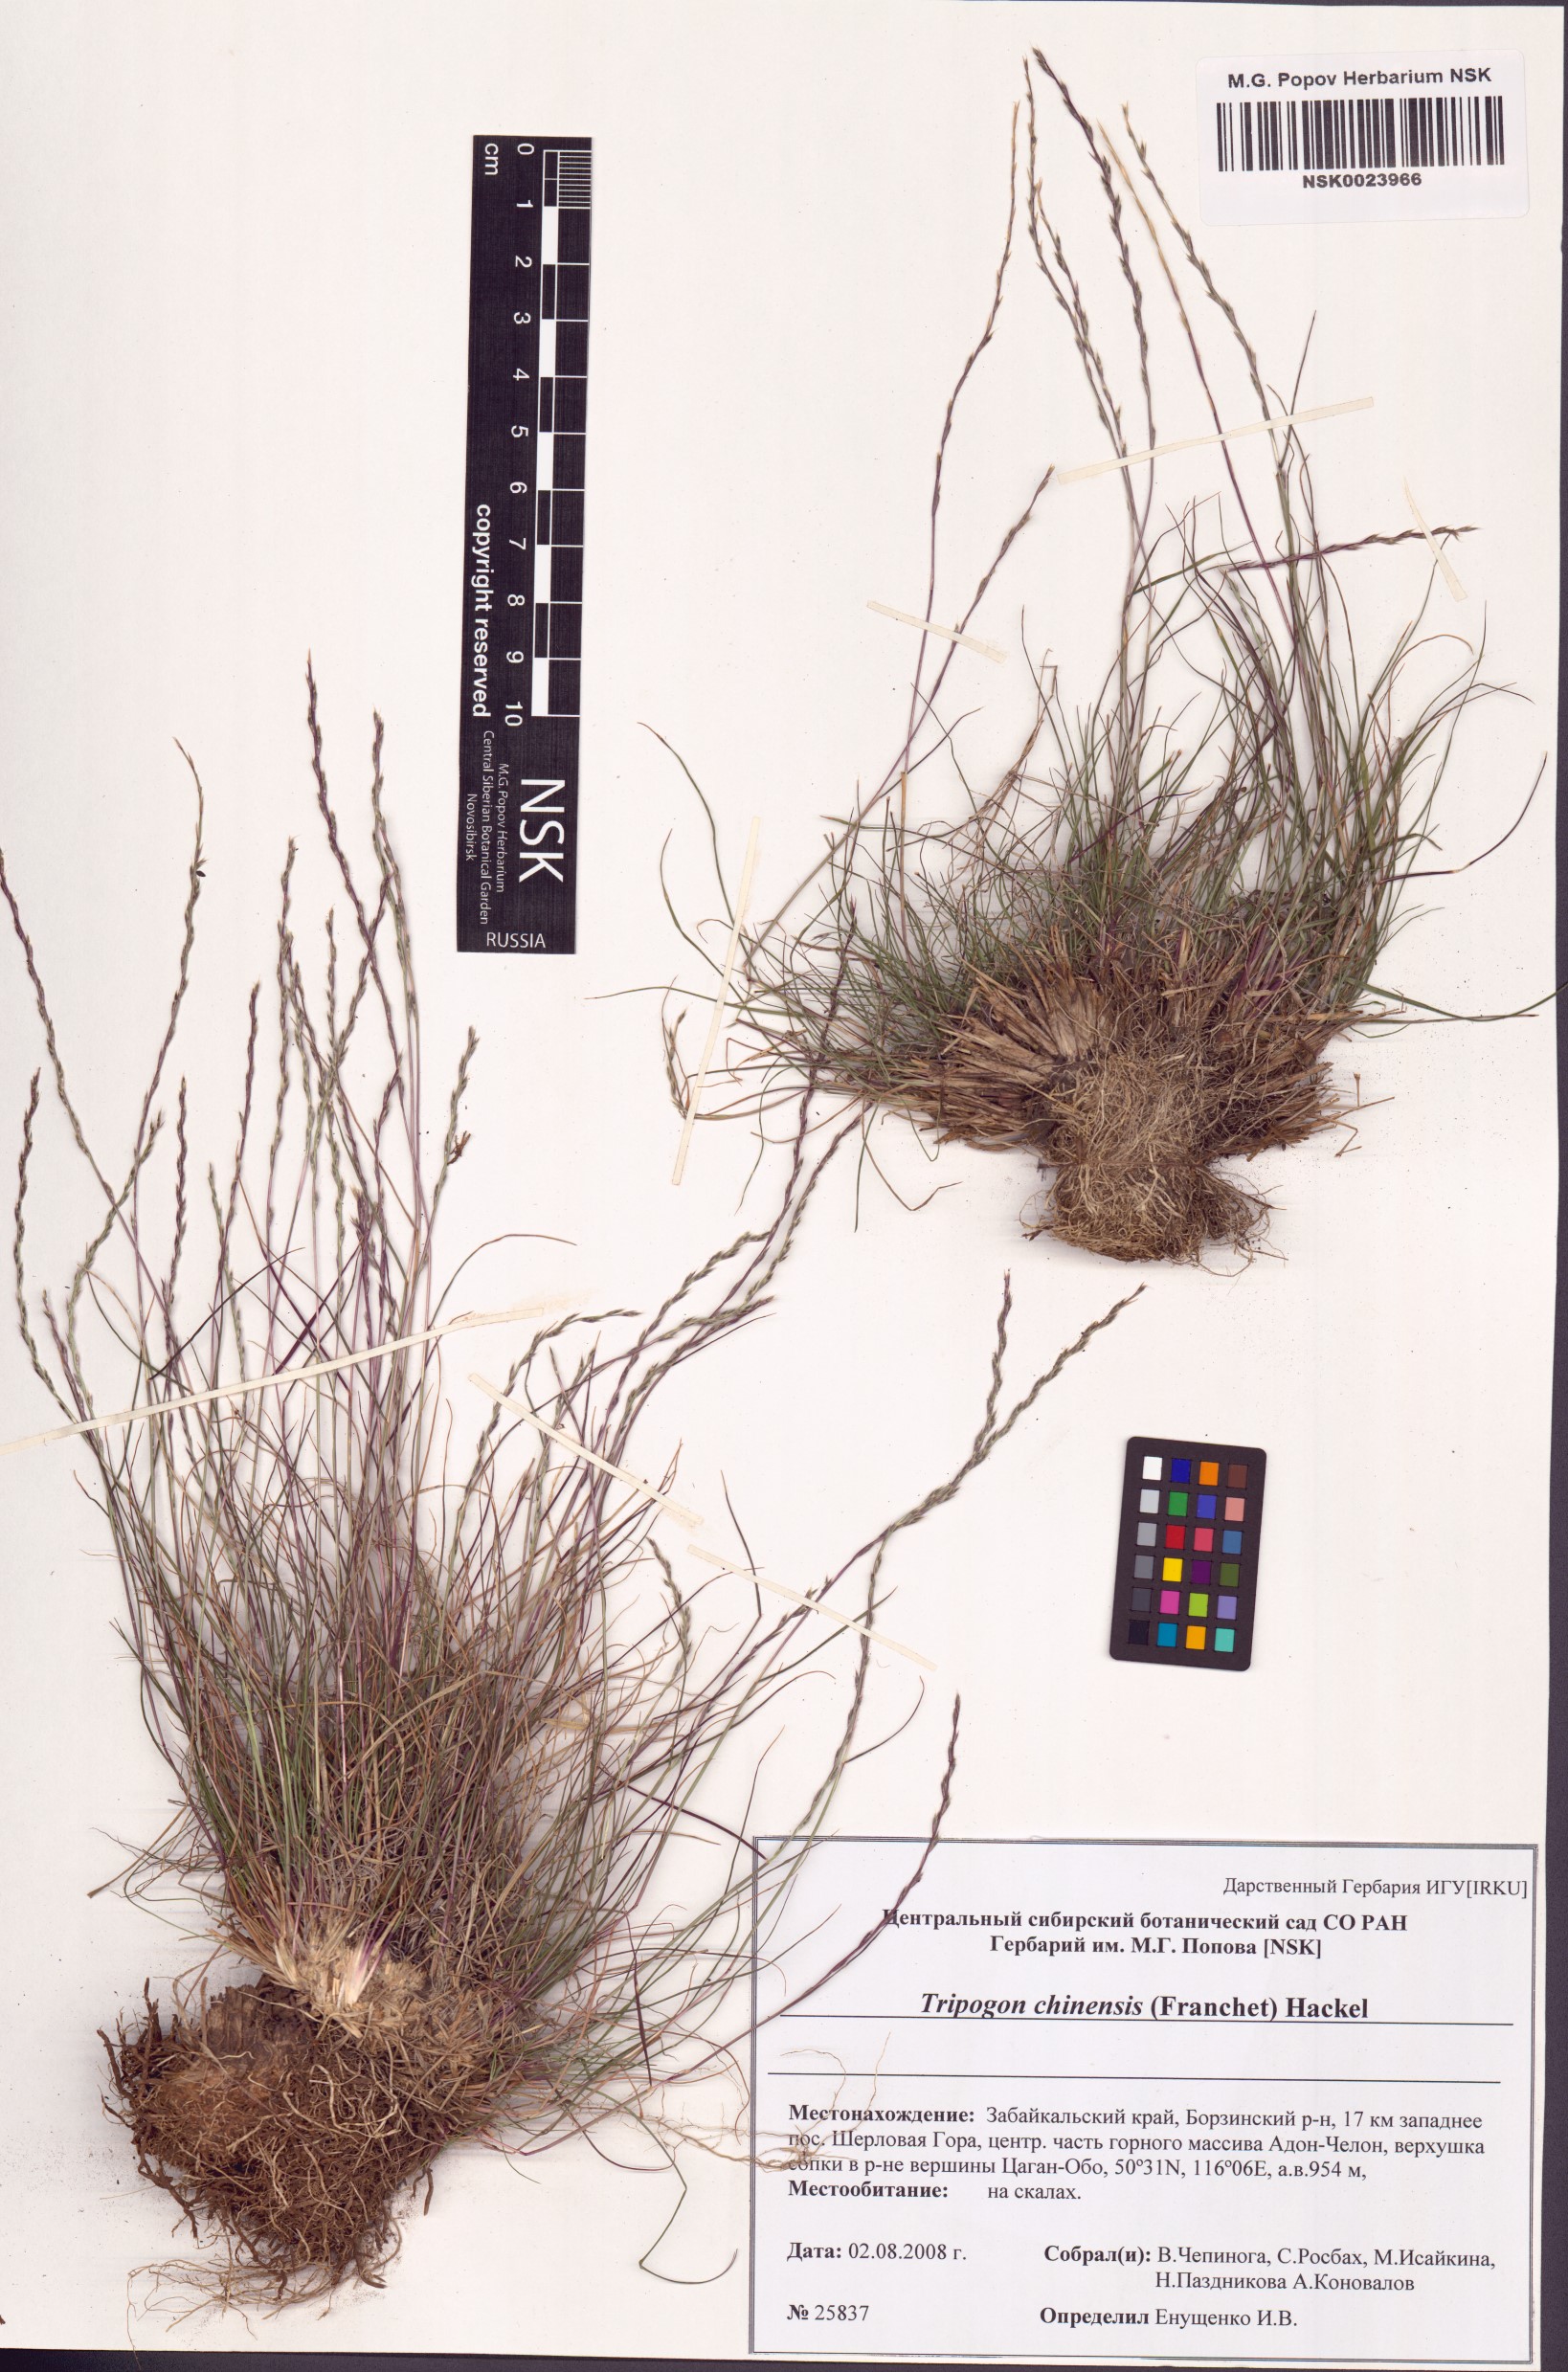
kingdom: Plantae
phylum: Tracheophyta
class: Liliopsida
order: Poales
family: Poaceae
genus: Tripogon
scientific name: Tripogon chinensis
